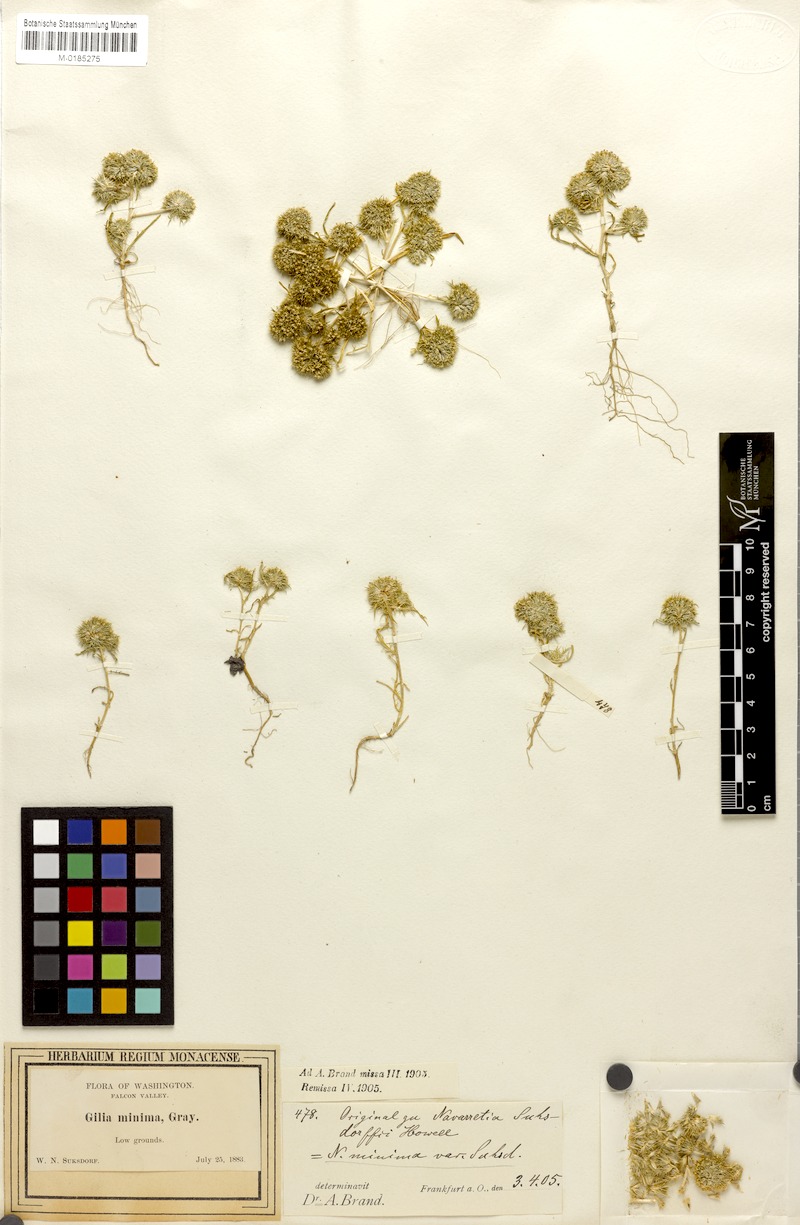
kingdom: Plantae
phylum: Tracheophyta
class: Magnoliopsida
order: Ericales
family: Polemoniaceae
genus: Navarretia
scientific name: Navarretia leucocephala
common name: White-flowered navarretia
